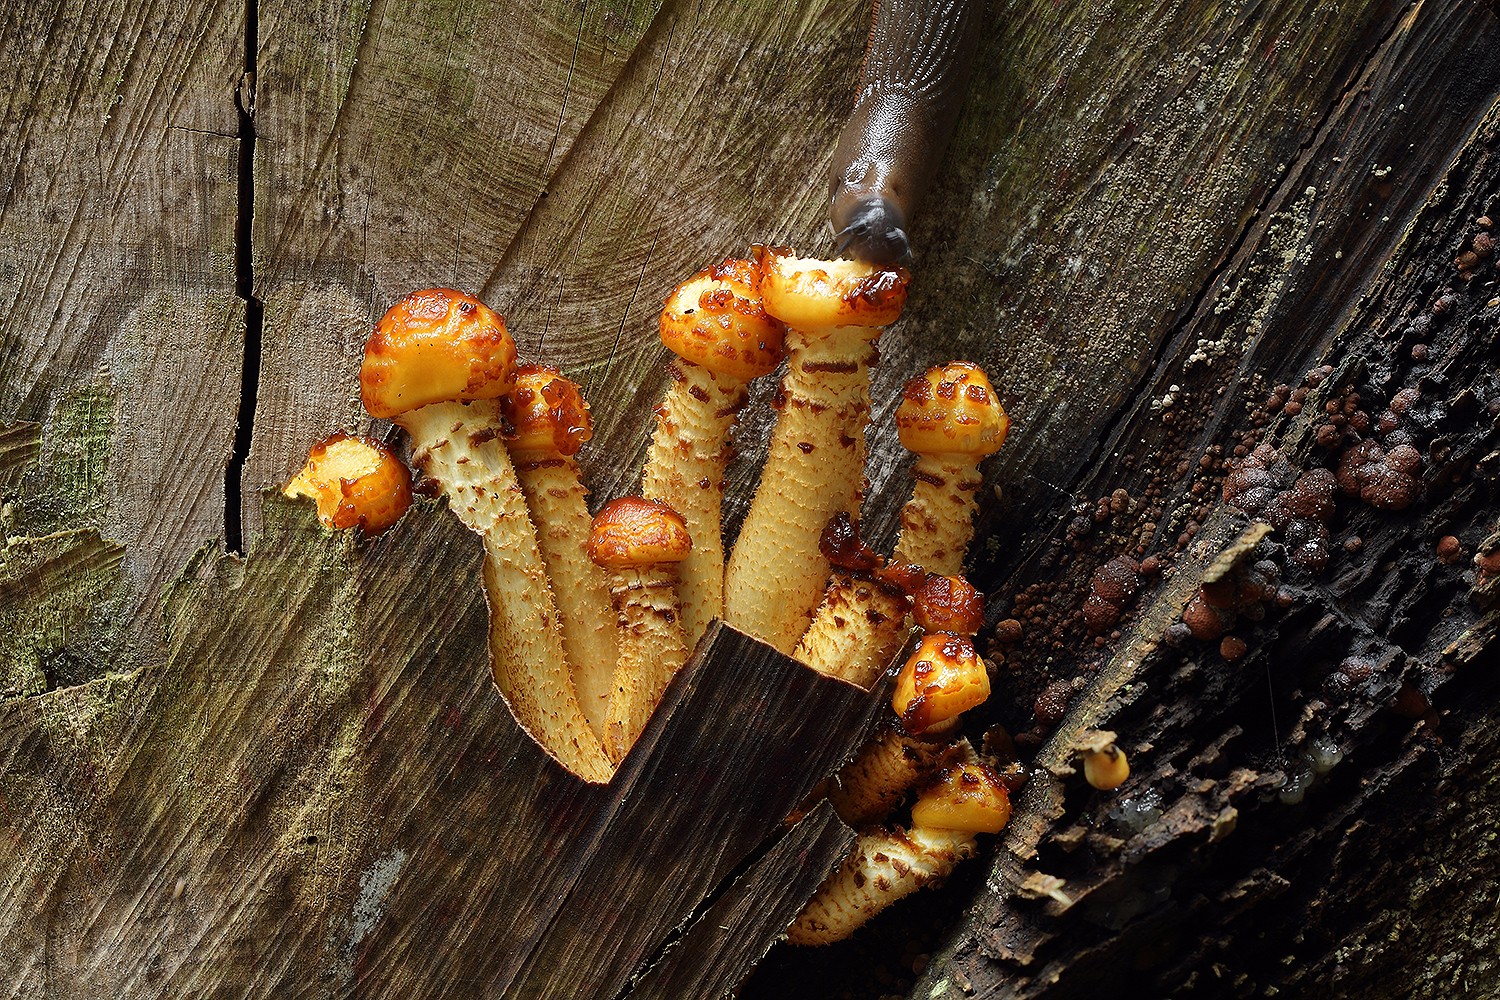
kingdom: Fungi
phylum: Basidiomycota
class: Agaricomycetes
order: Agaricales
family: Strophariaceae
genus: Pholiota
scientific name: Pholiota adiposa
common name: højtsiddende skælhat
